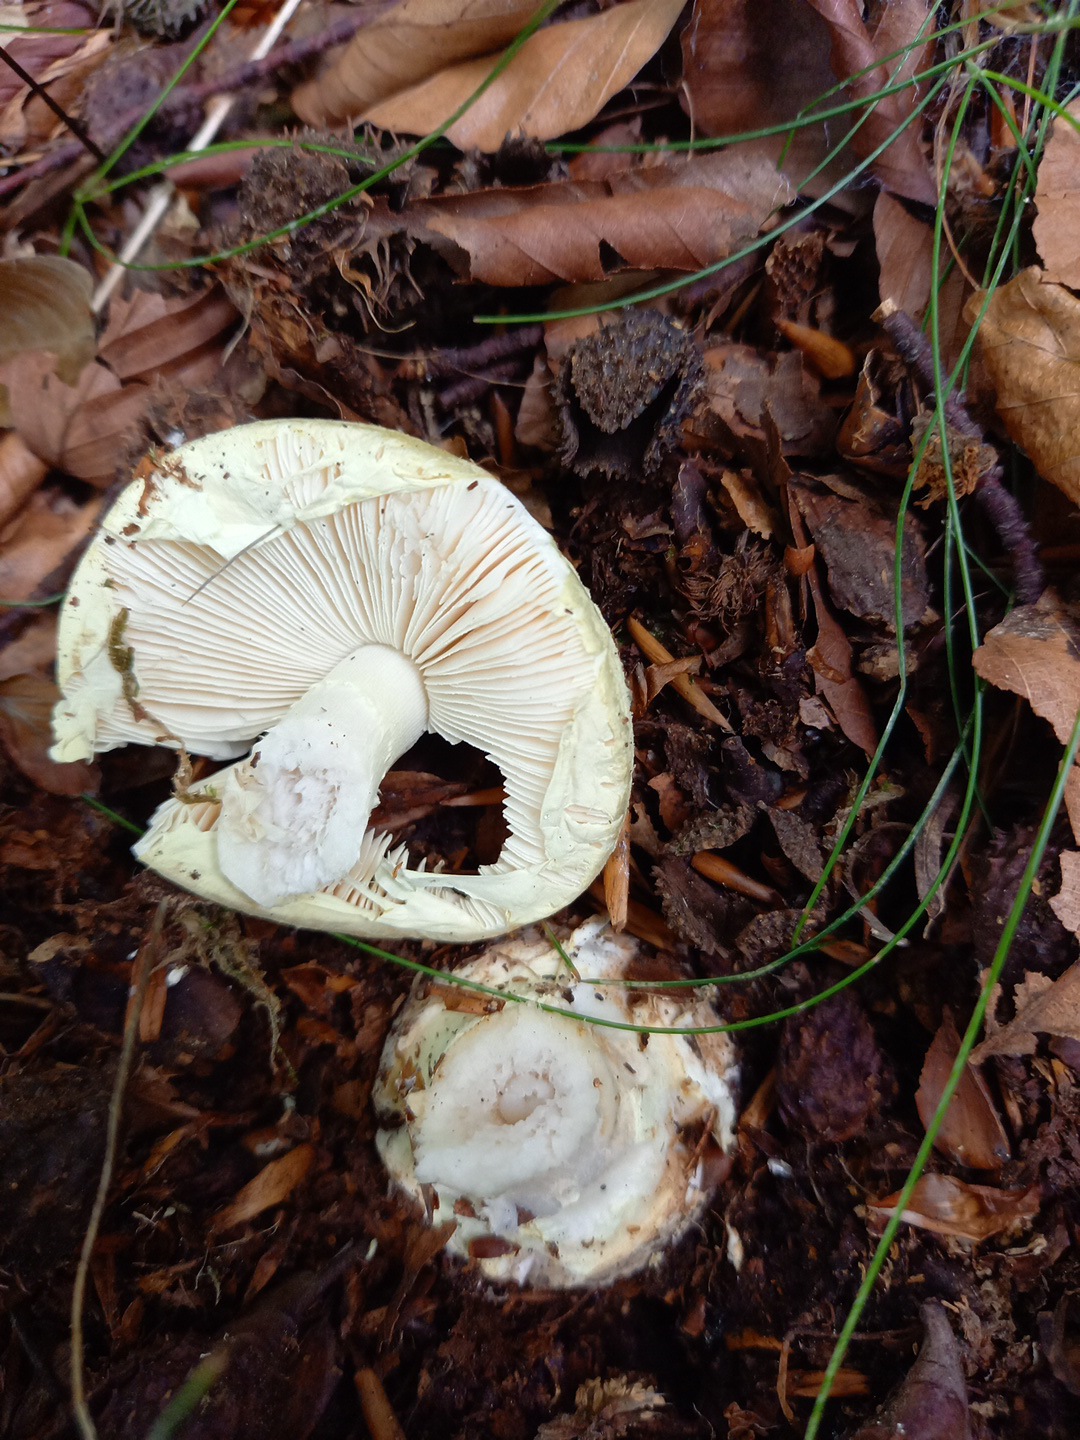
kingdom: Fungi
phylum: Basidiomycota
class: Agaricomycetes
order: Agaricales
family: Amanitaceae
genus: Amanita
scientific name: Amanita citrina
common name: kugleknoldet fluesvamp
